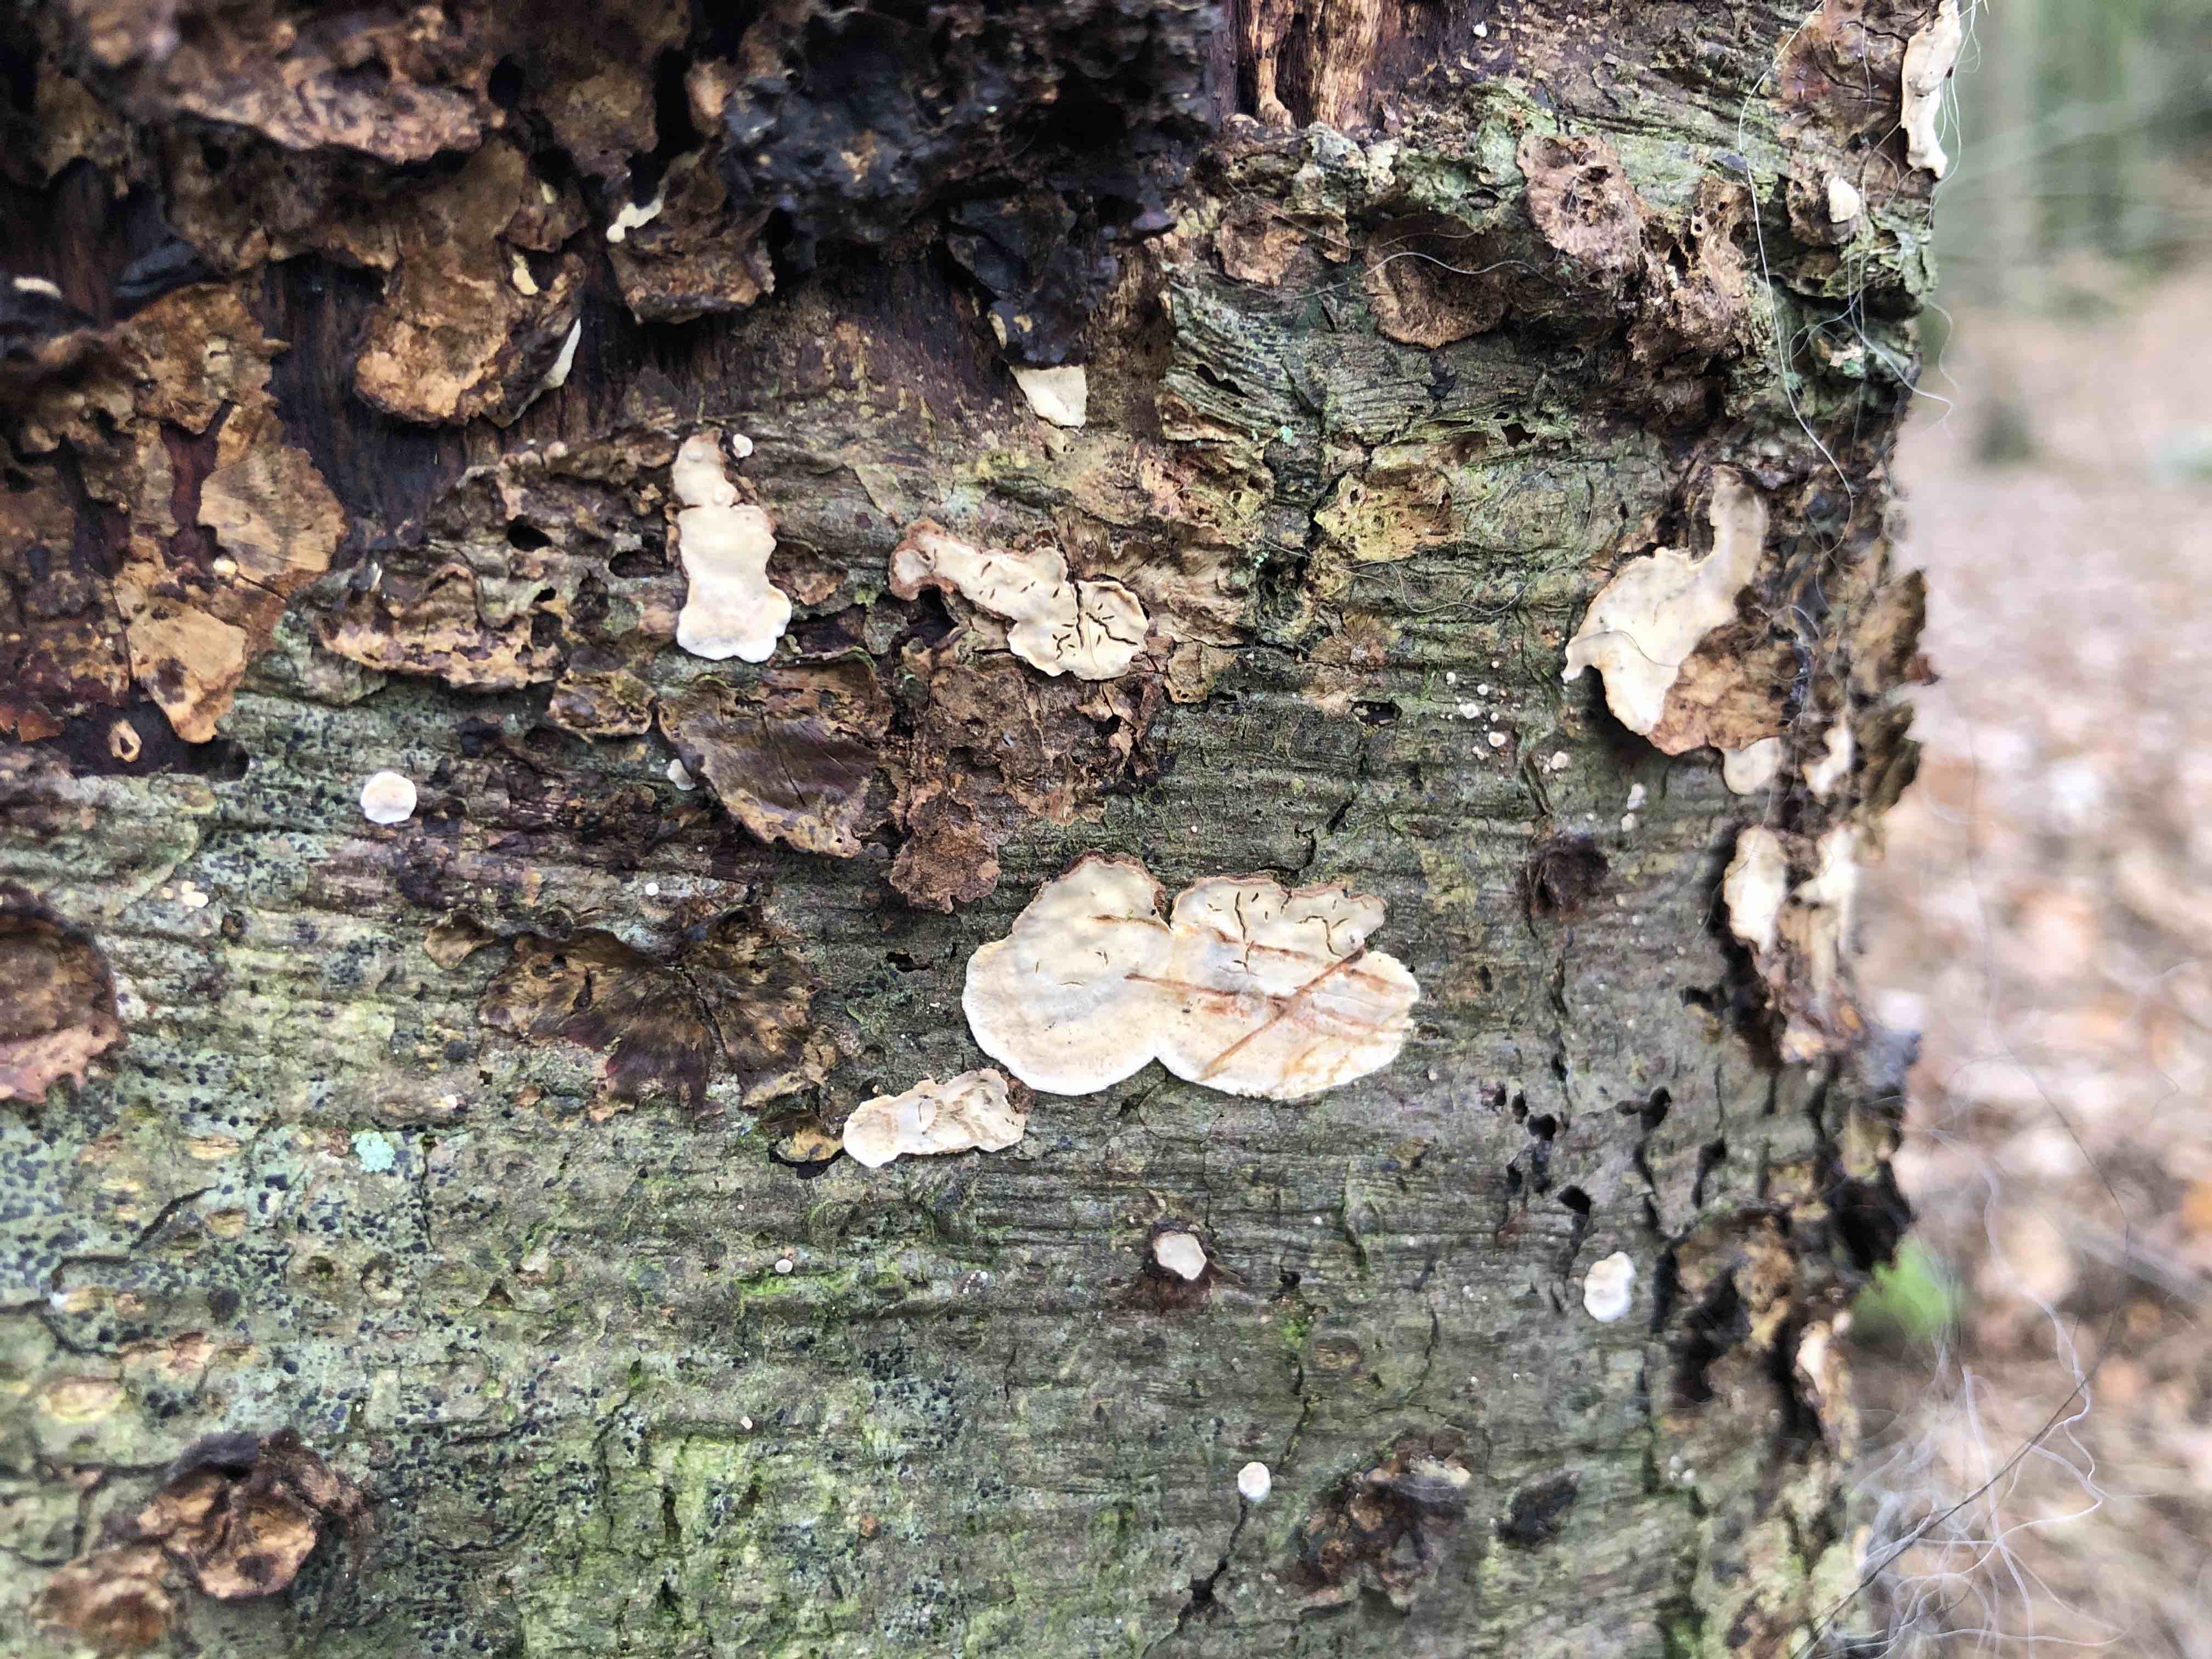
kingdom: Fungi
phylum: Basidiomycota
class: Agaricomycetes
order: Russulales
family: Stereaceae
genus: Stereum
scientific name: Stereum rugosum
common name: rynket lædersvamp
